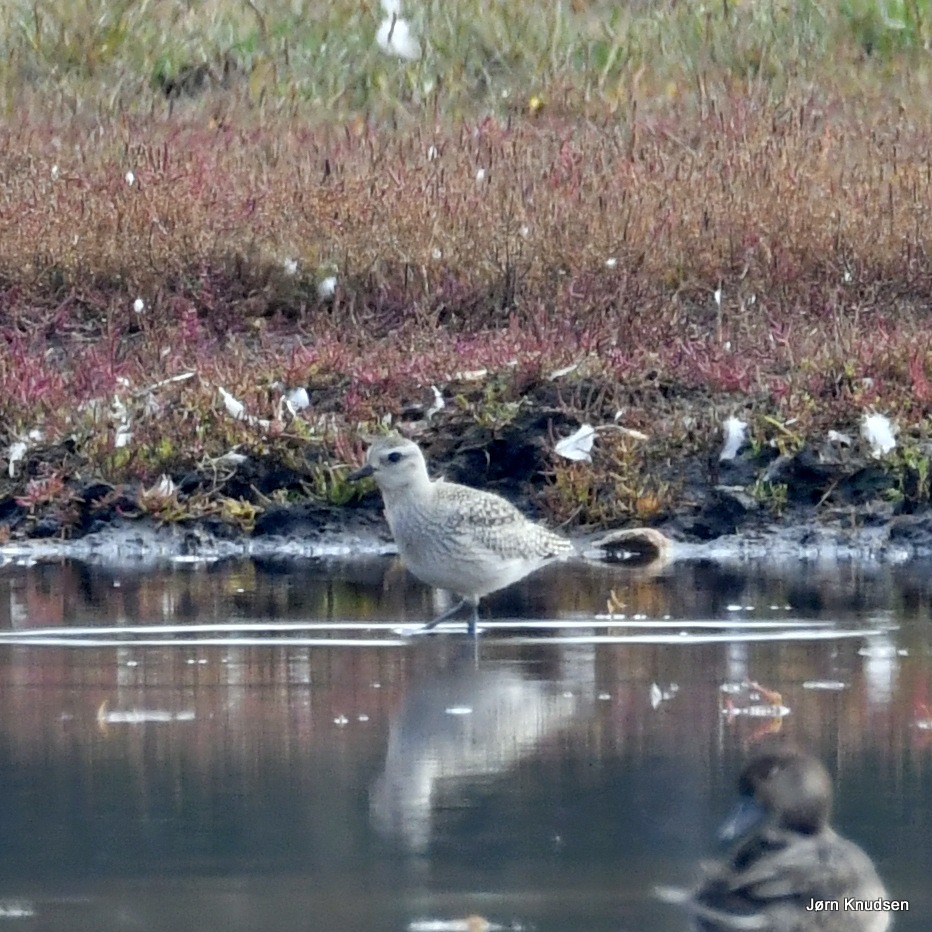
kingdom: Animalia
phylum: Chordata
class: Aves
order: Charadriiformes
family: Charadriidae
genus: Pluvialis
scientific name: Pluvialis squatarola
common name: Strandhjejle
